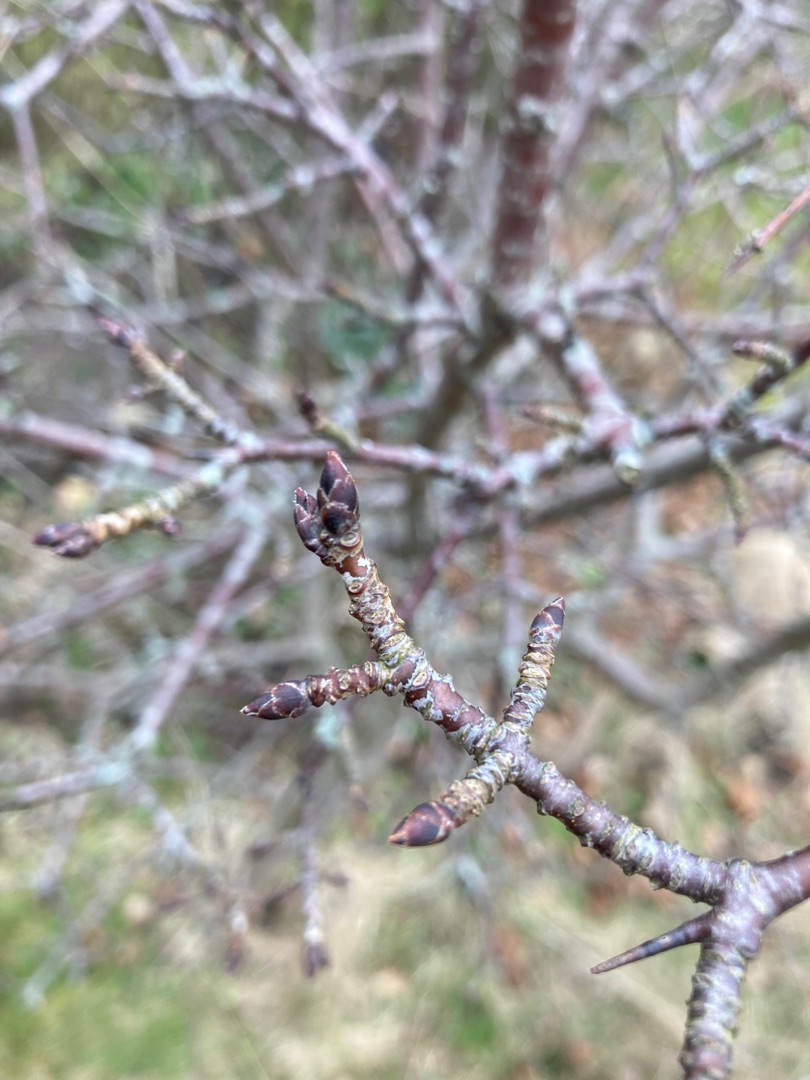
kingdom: Plantae
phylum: Tracheophyta
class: Magnoliopsida
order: Rosales
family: Rhamnaceae
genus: Rhamnus
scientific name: Rhamnus cathartica
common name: Vrietorn
